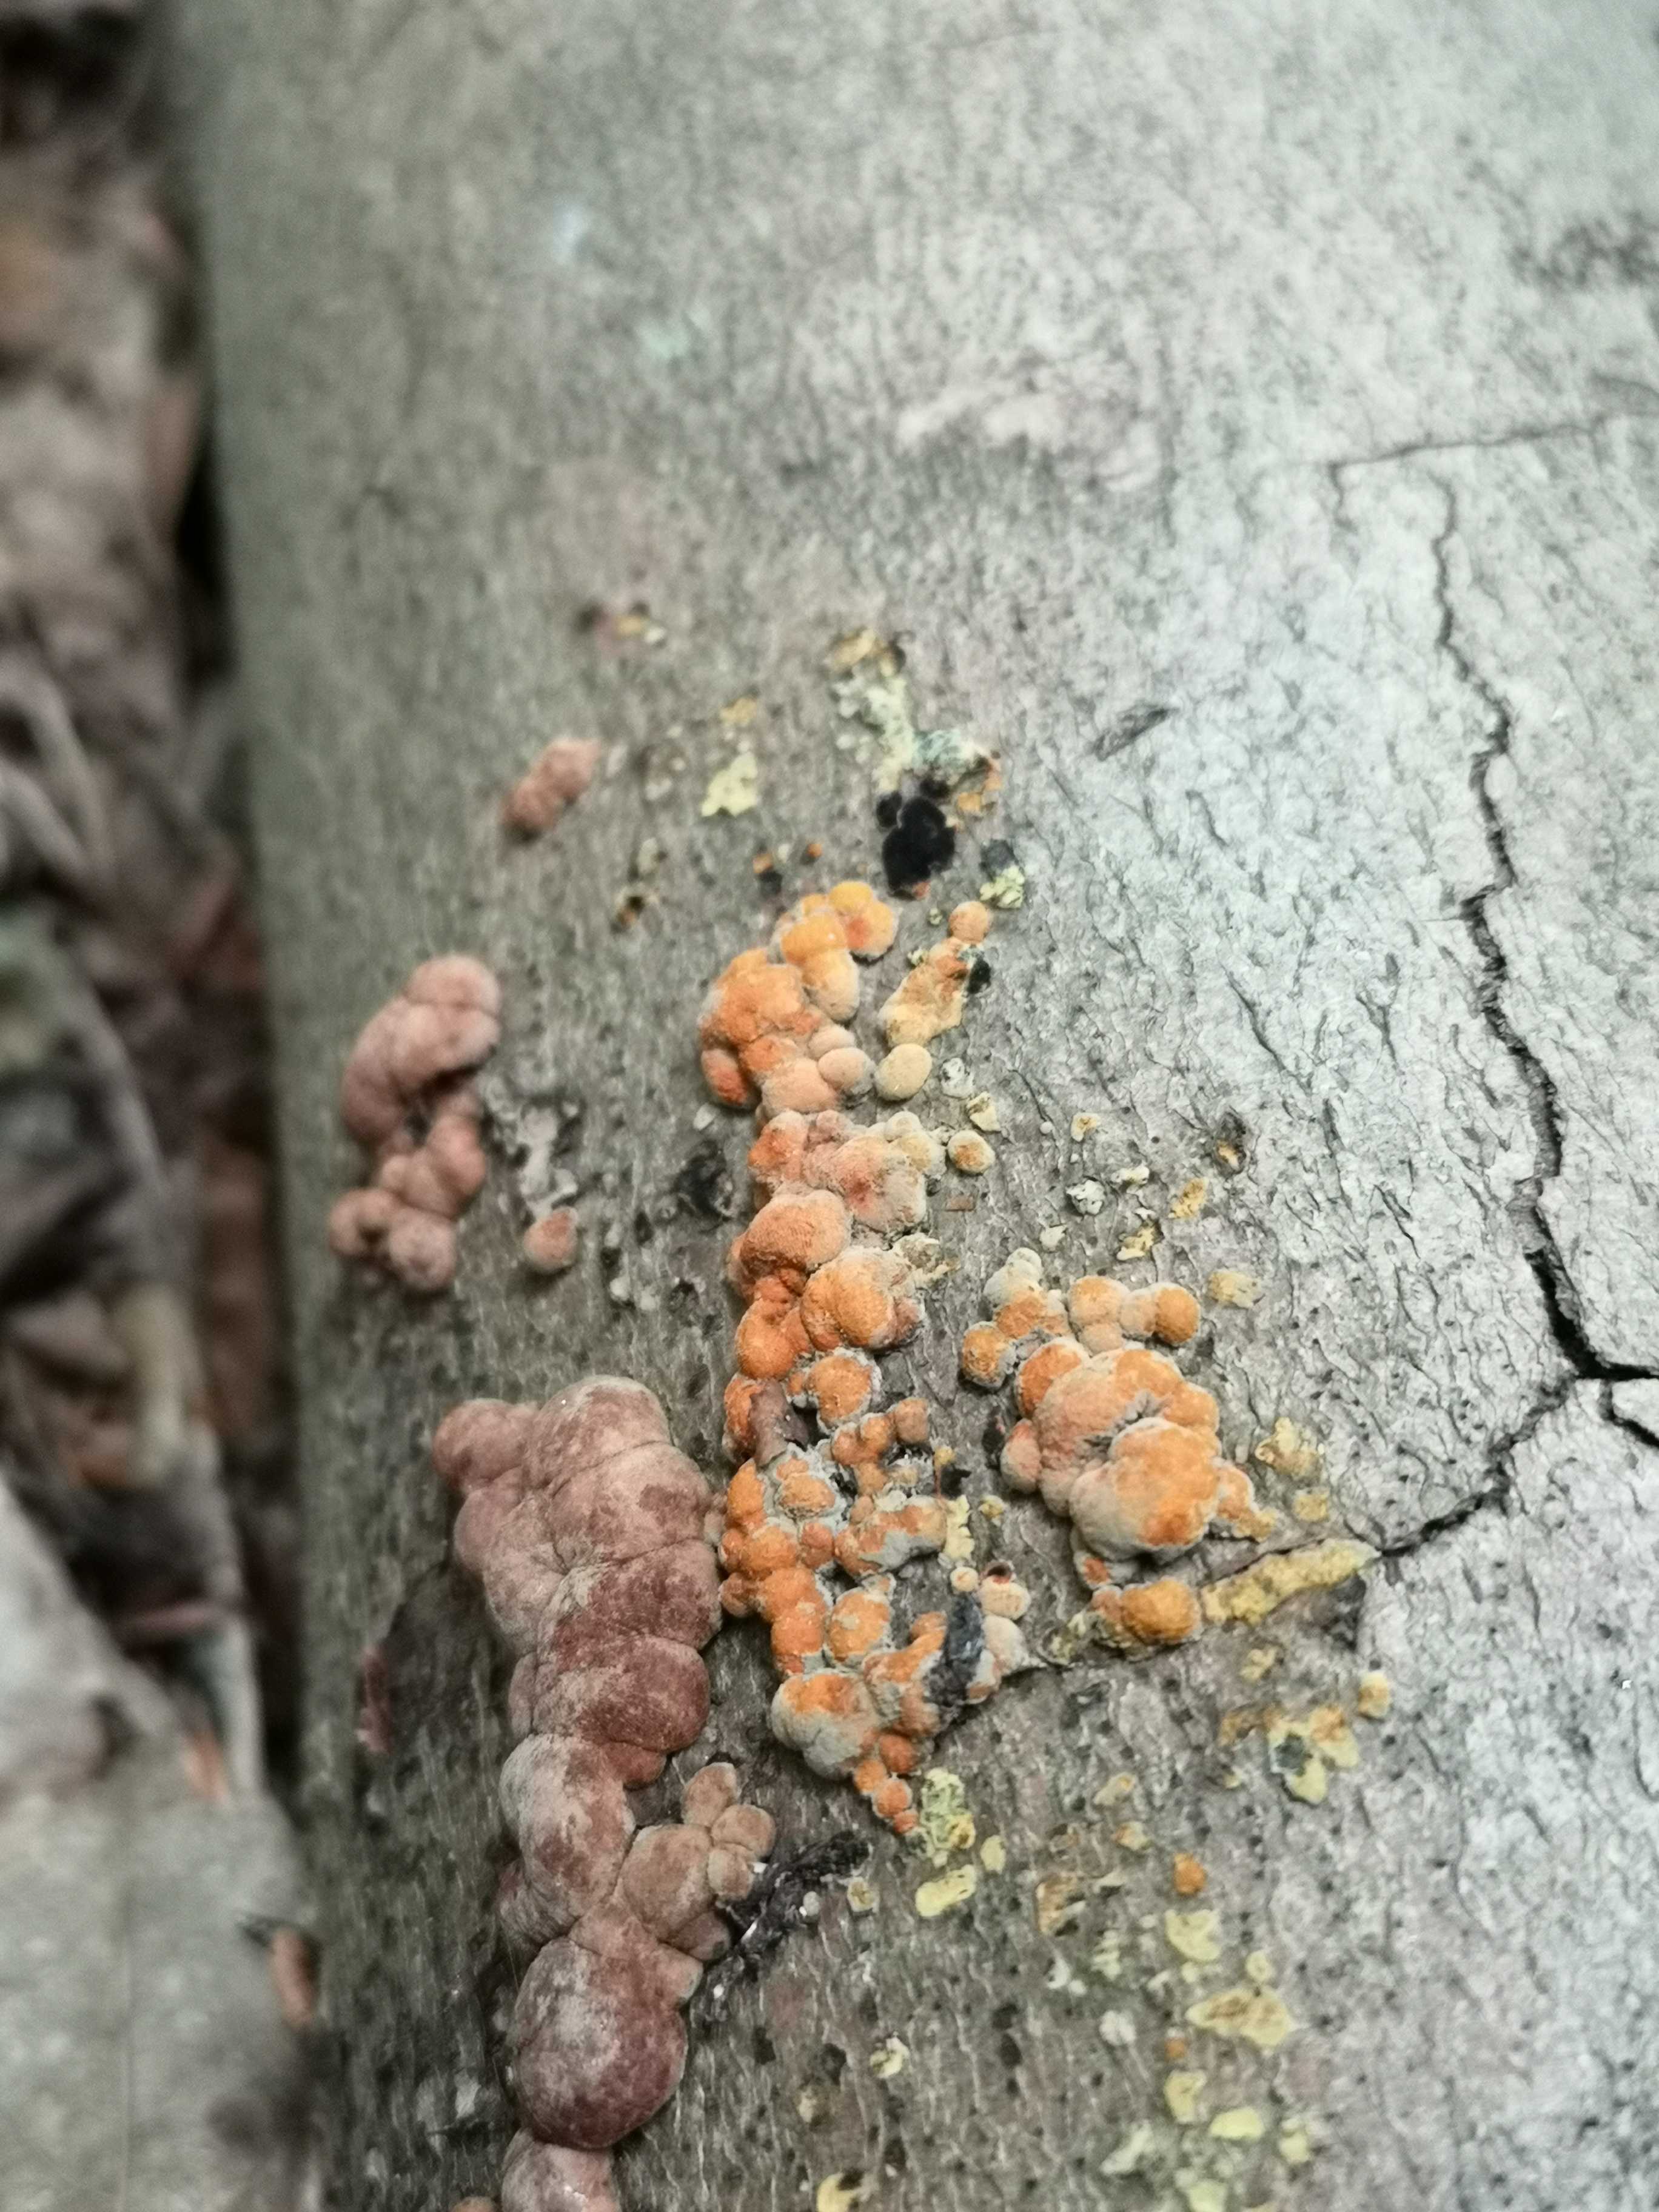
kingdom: Fungi
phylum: Ascomycota
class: Sordariomycetes
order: Xylariales
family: Hypoxylaceae
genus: Hypoxylon
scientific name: Hypoxylon fragiforme
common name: kuljordbær
